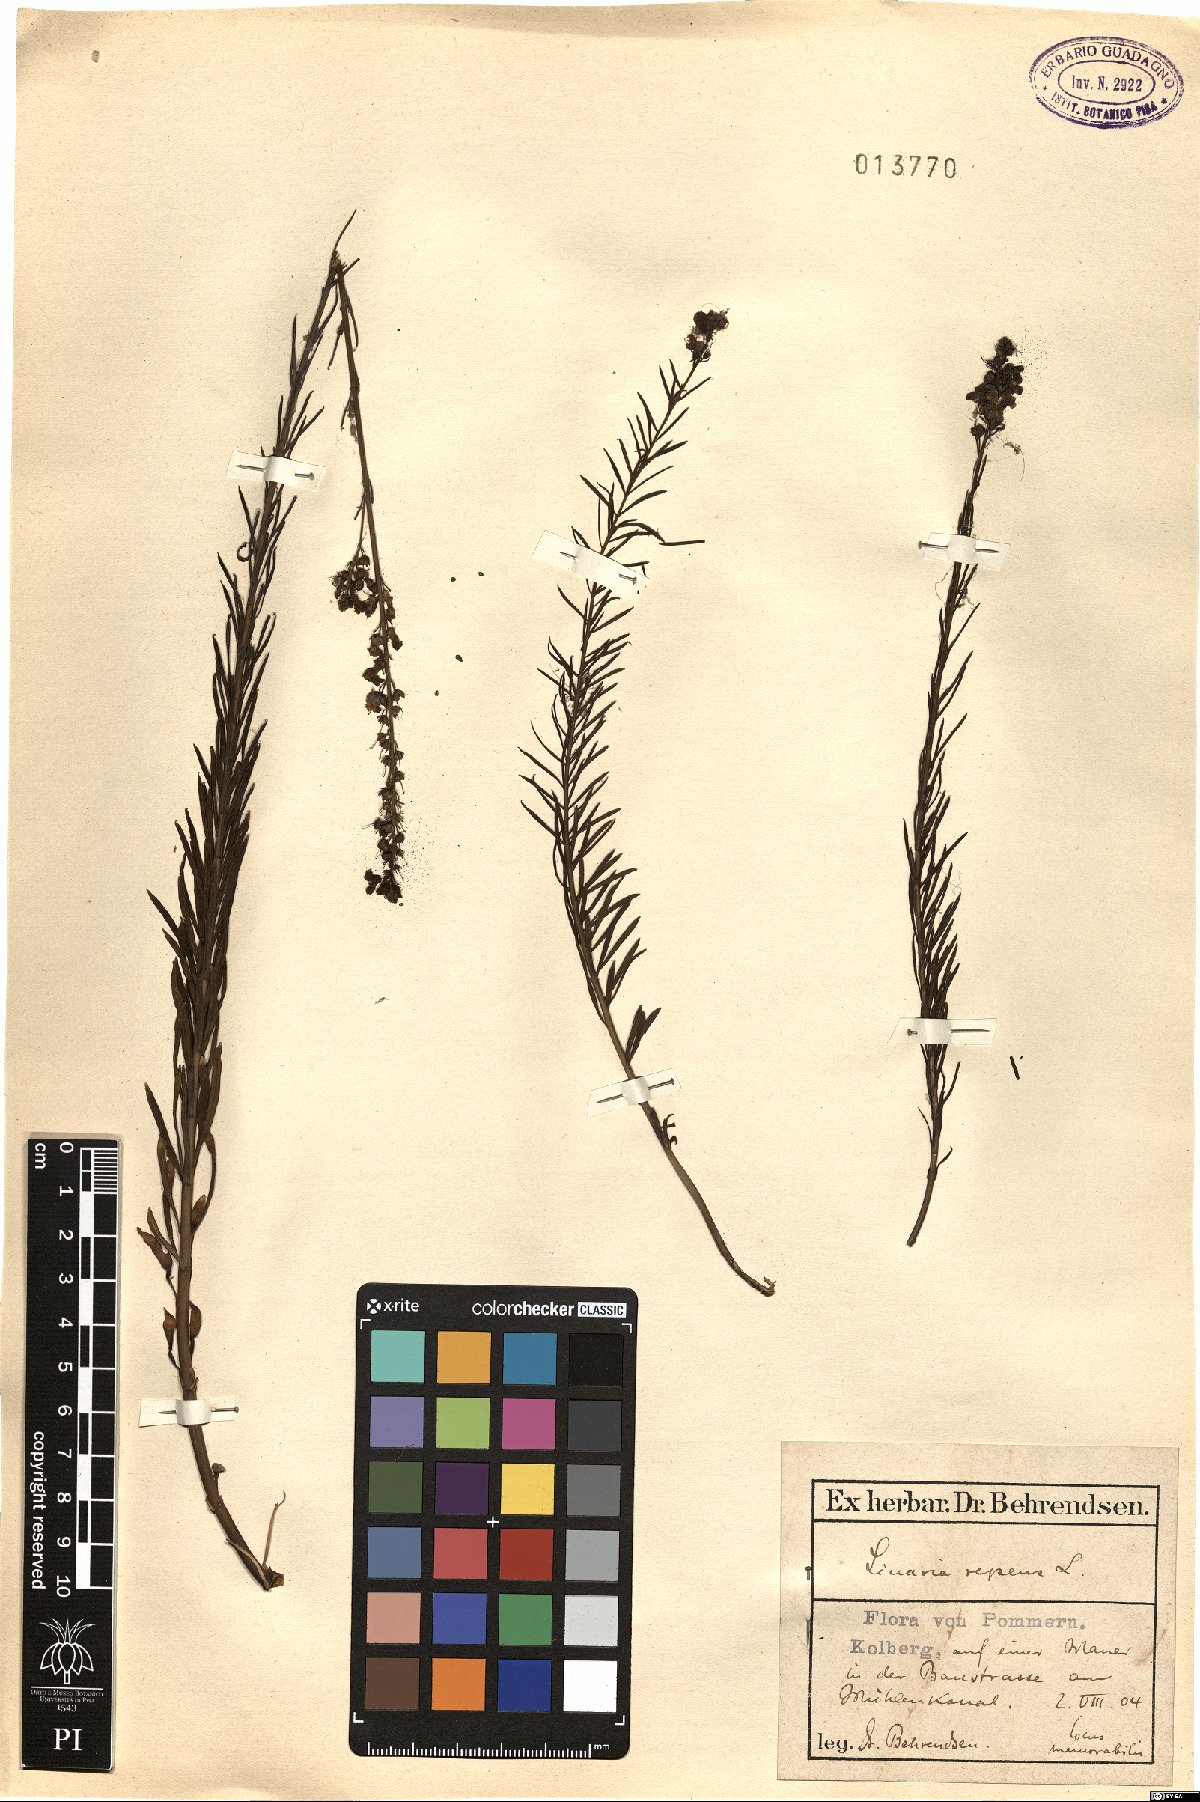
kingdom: Plantae
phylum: Tracheophyta
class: Magnoliopsida
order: Lamiales
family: Plantaginaceae
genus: Linaria
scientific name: Linaria repens
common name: Pale toadflax
